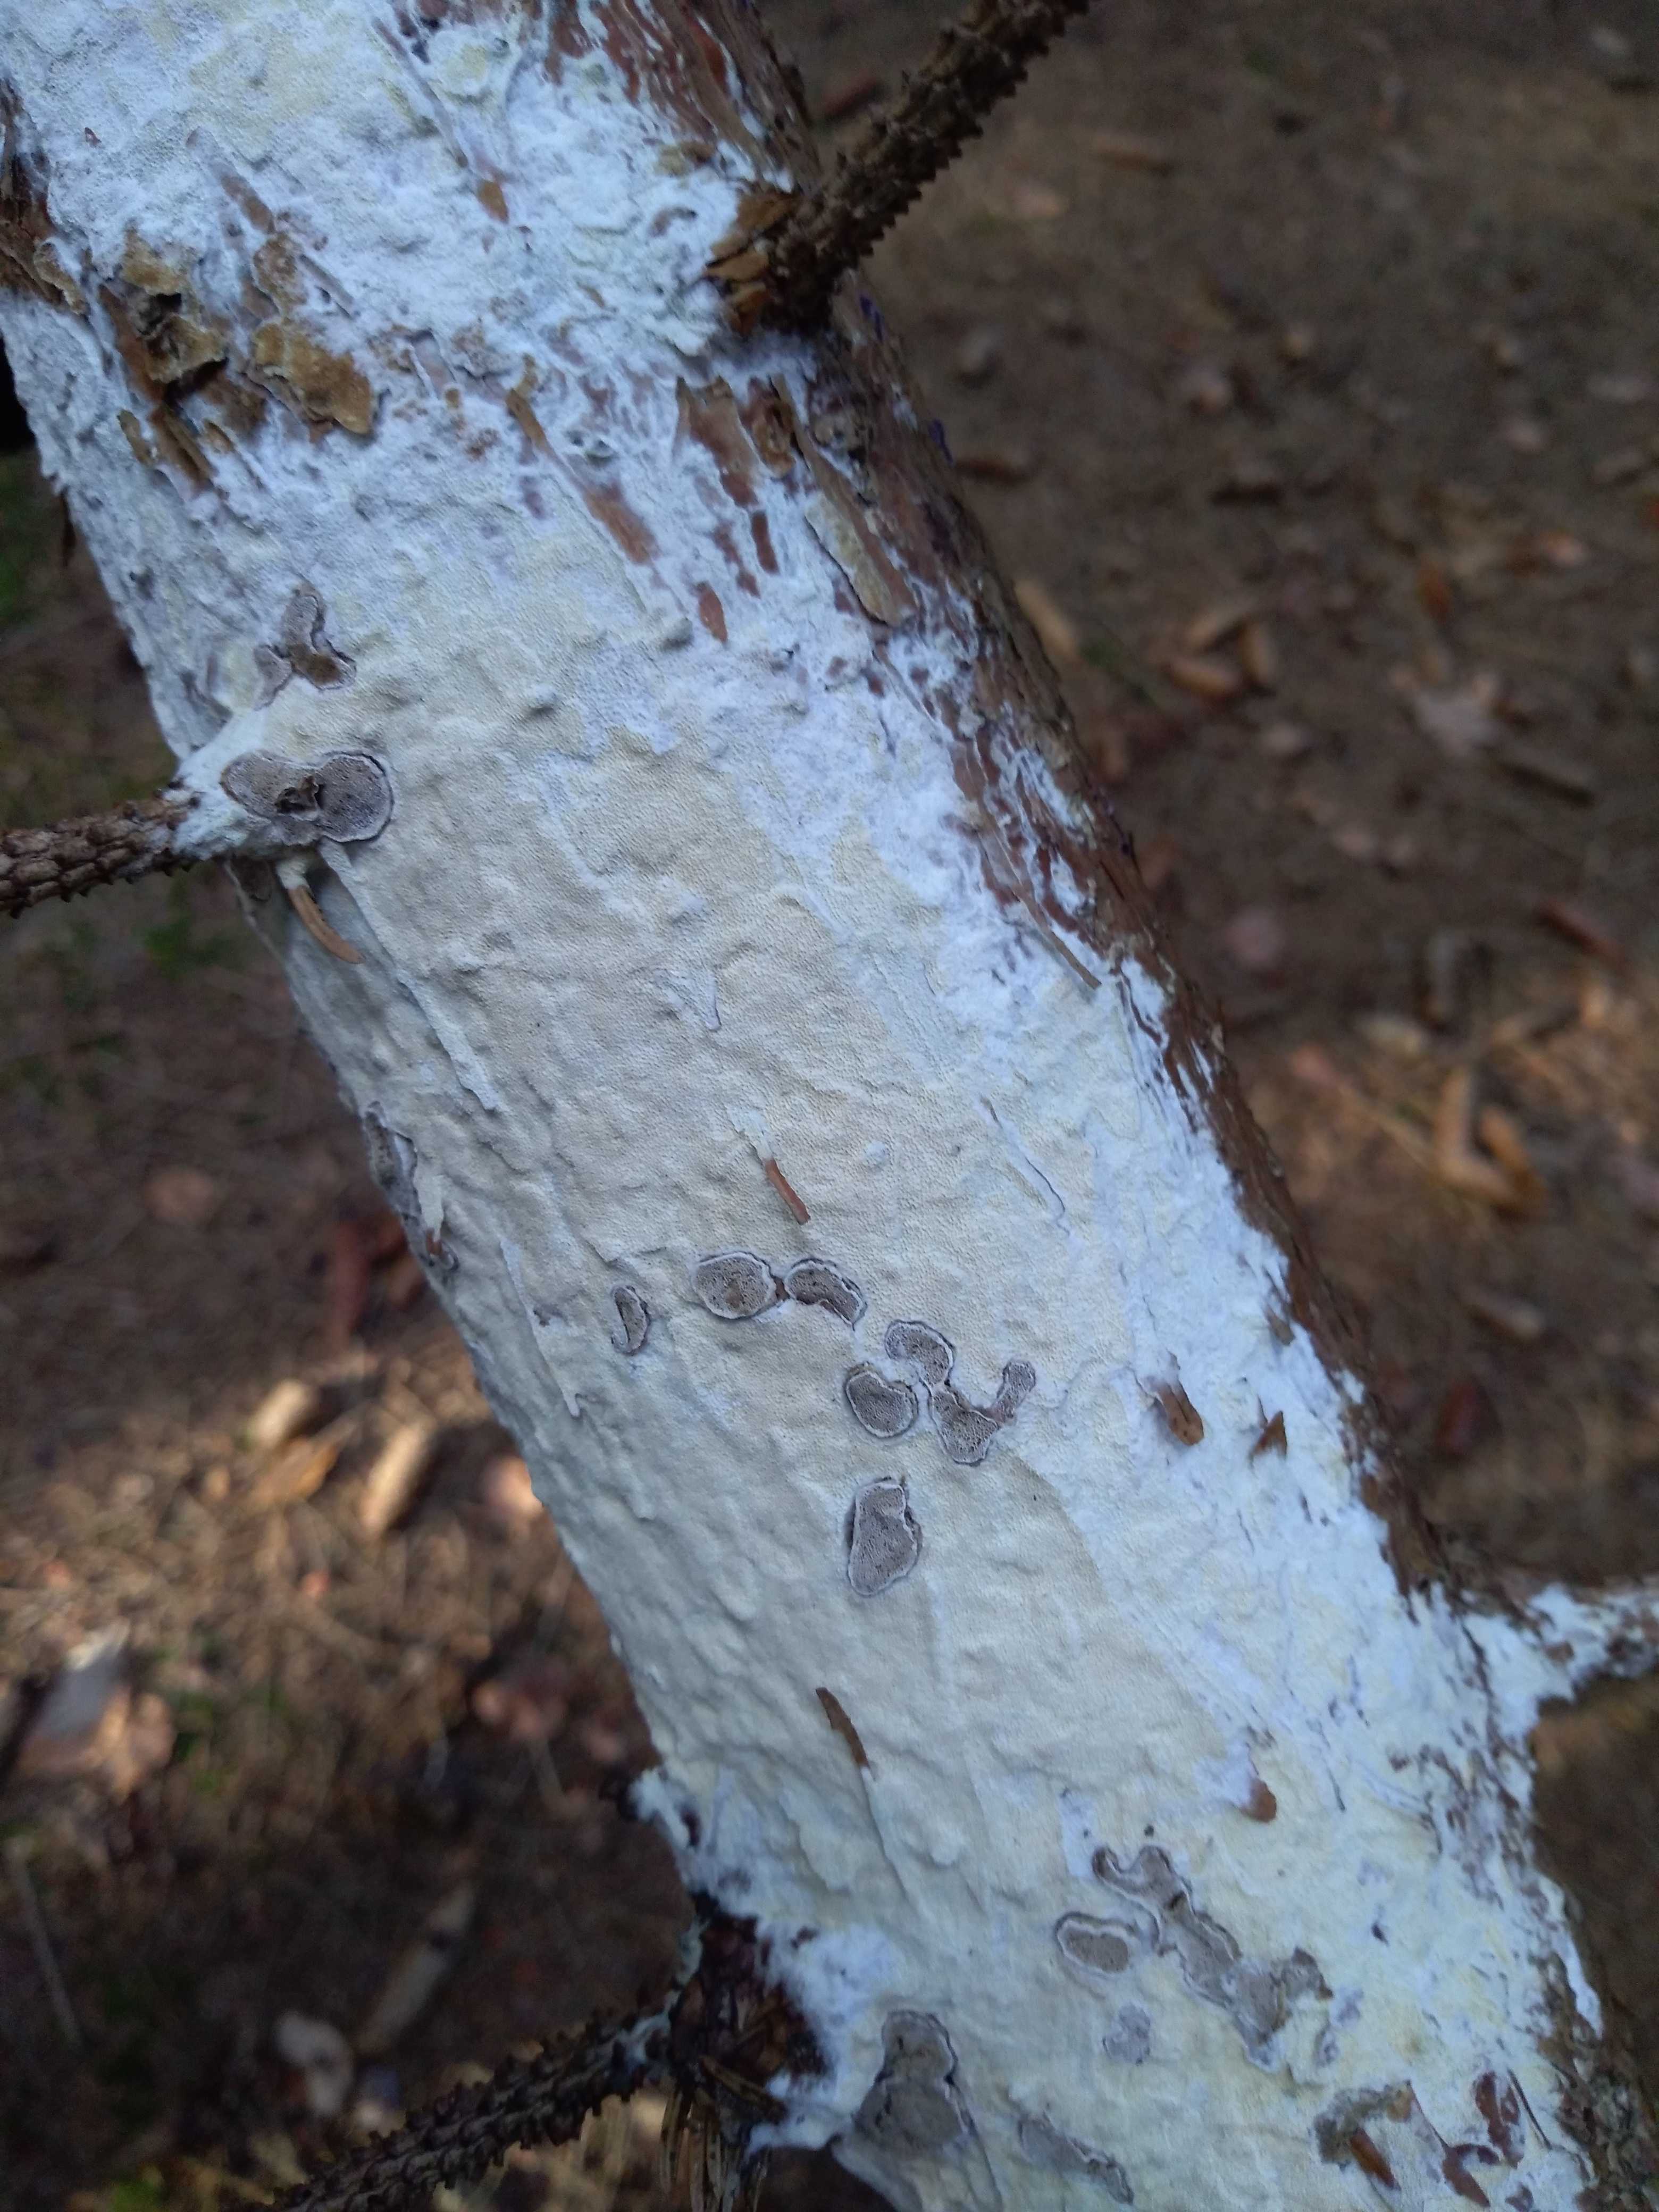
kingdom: Fungi
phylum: Basidiomycota
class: Agaricomycetes
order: Polyporales
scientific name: Polyporales
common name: poresvampordenen
